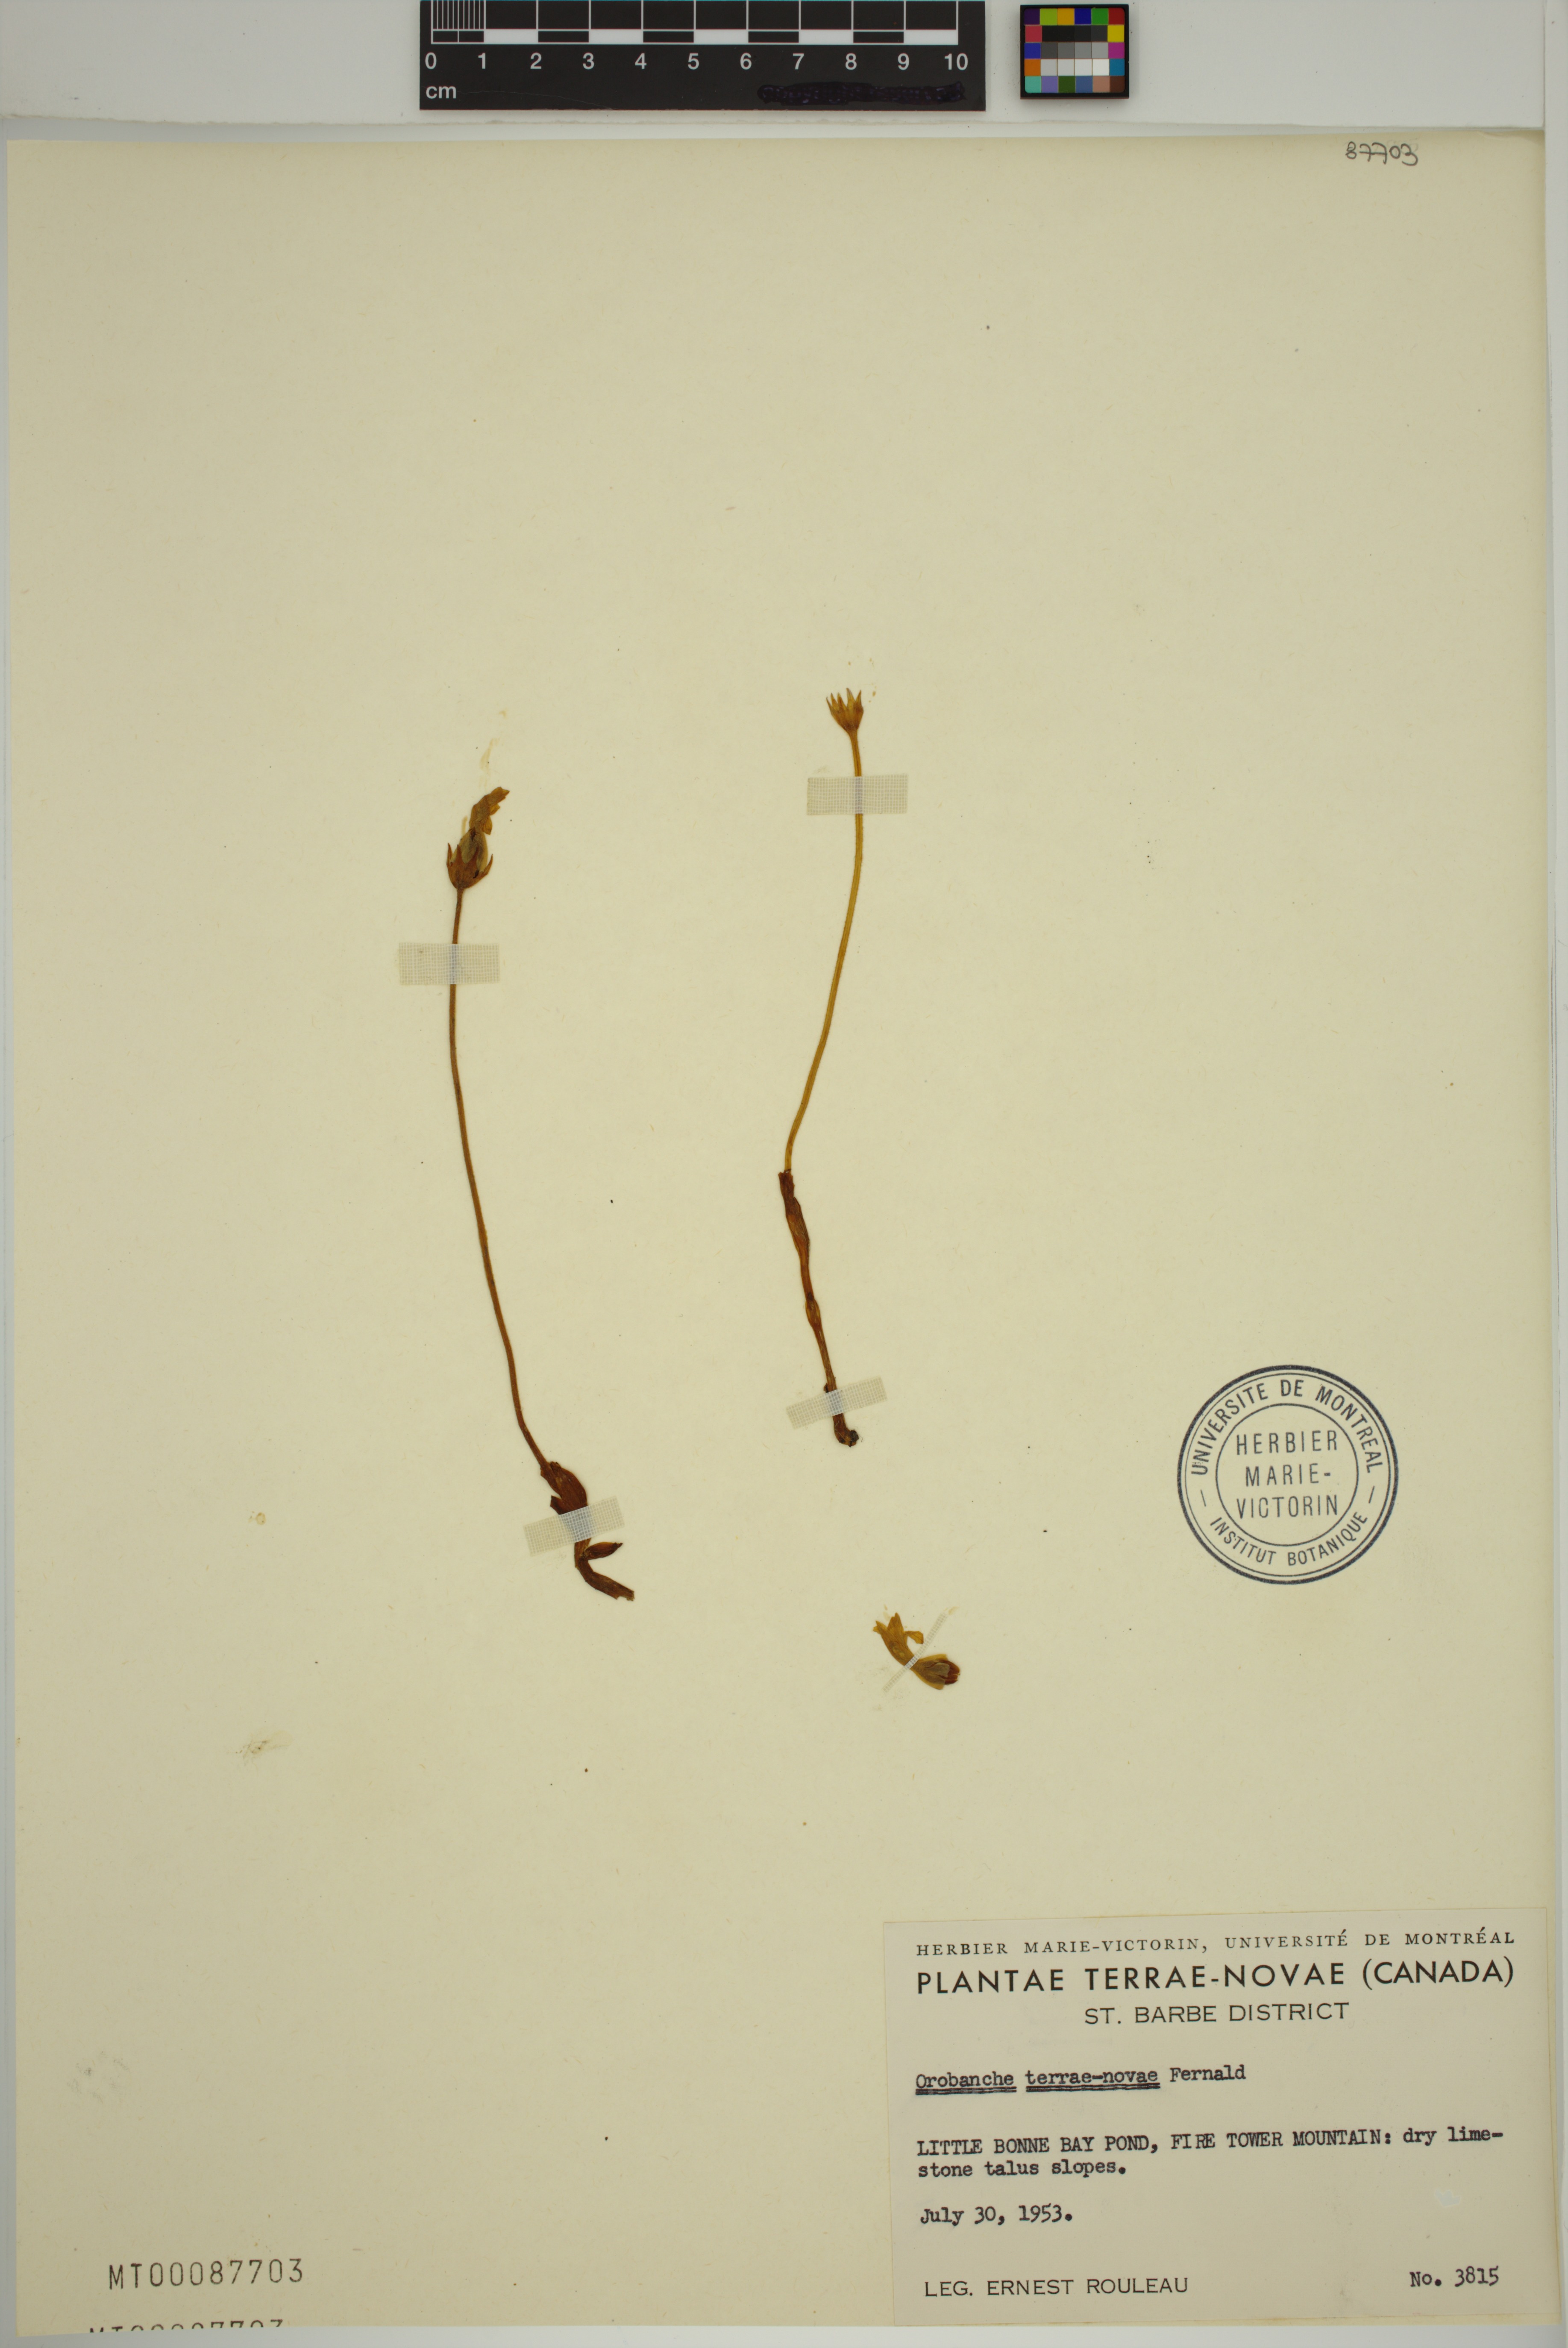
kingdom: Plantae
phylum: Tracheophyta
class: Magnoliopsida
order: Lamiales
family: Orobanchaceae
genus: Aphyllon
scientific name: Aphyllon uniflorum
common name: One-flowered broomrape
